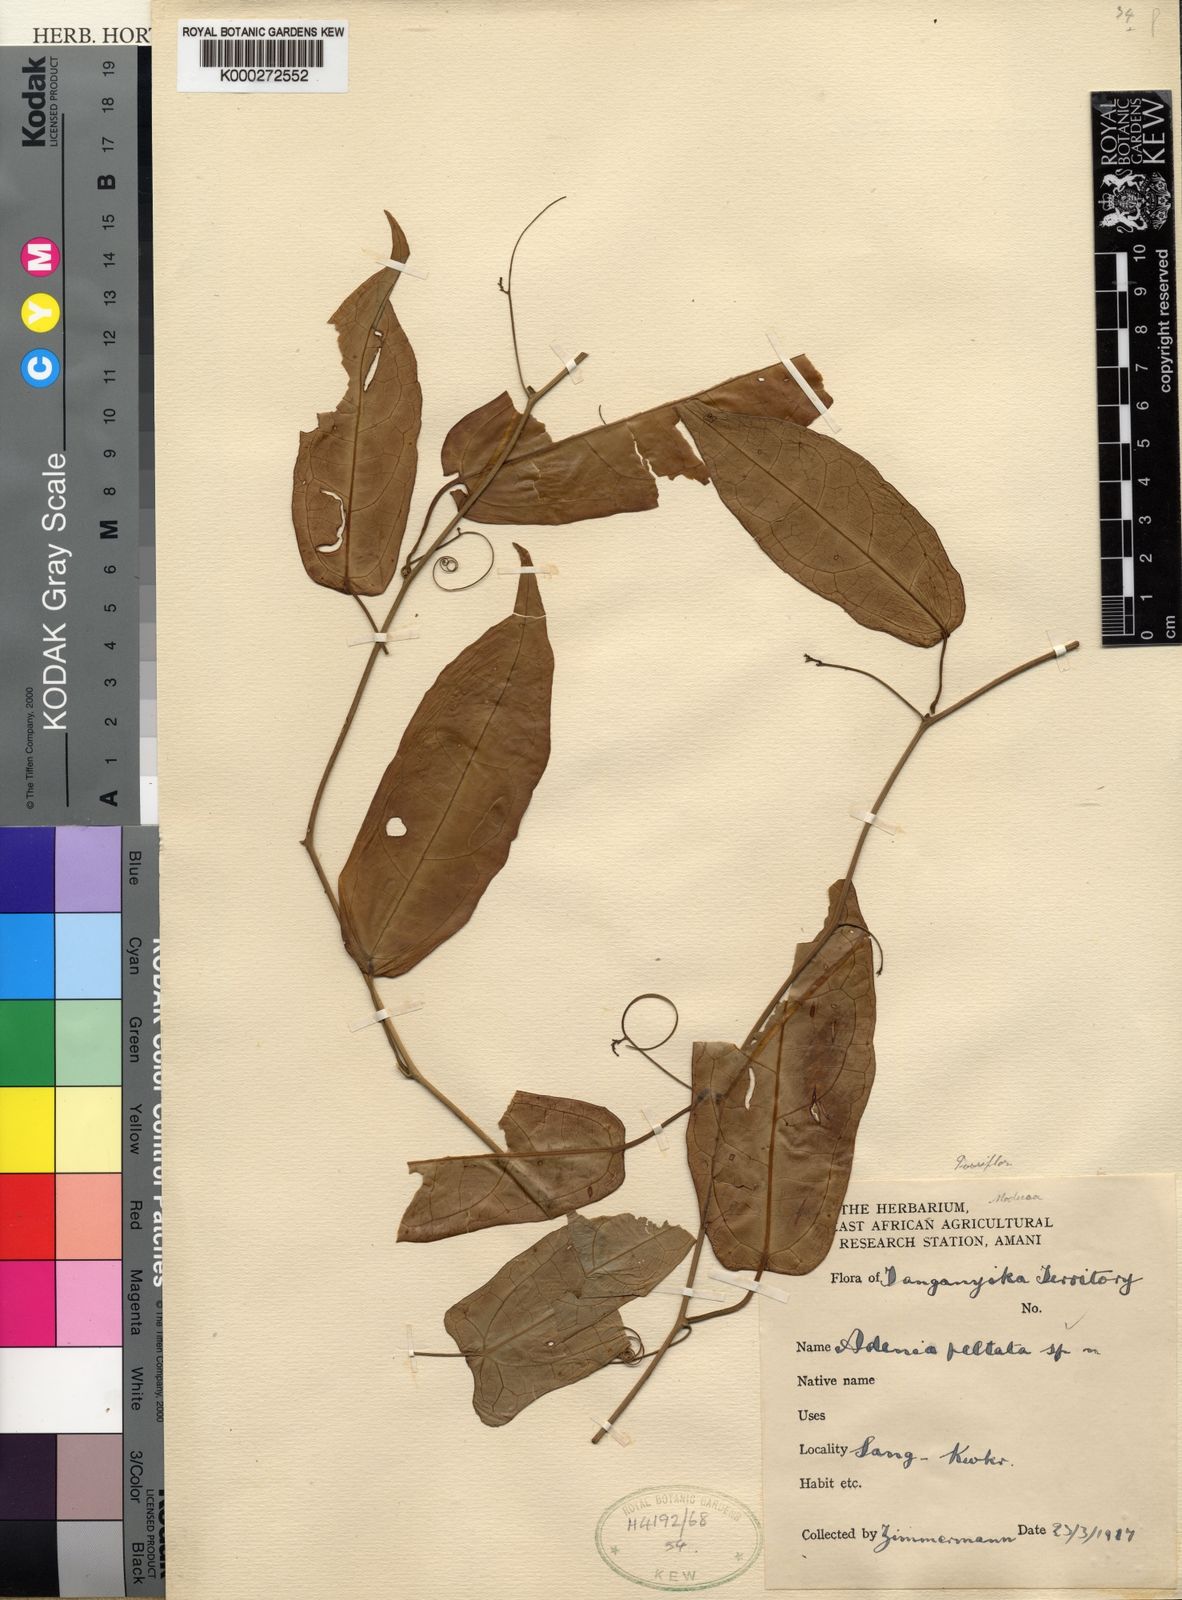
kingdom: Plantae
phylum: Tracheophyta
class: Magnoliopsida
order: Malpighiales
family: Passifloraceae
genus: Adenia
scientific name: Adenia lindiensis
